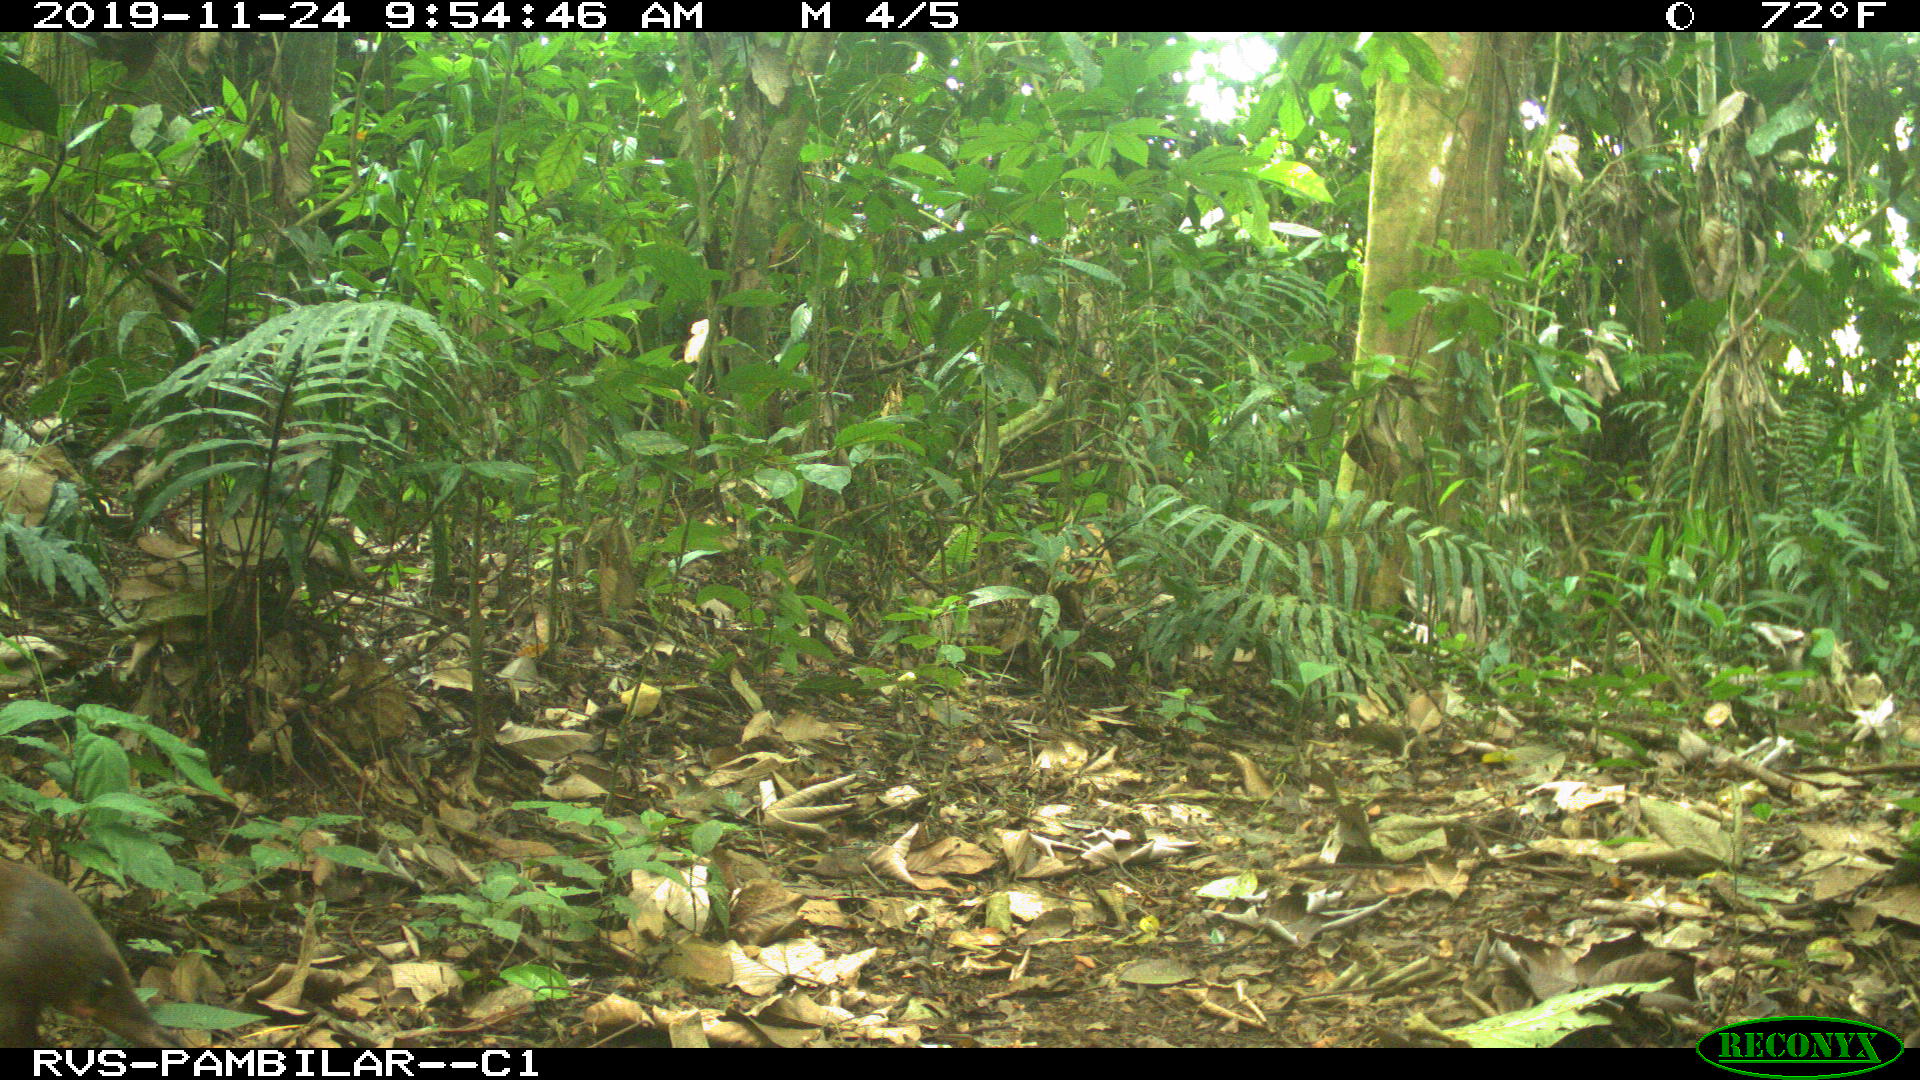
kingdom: Animalia
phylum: Chordata
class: Mammalia
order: Rodentia
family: Dasyproctidae
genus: Dasyprocta
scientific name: Dasyprocta punctata
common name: Central american agouti
